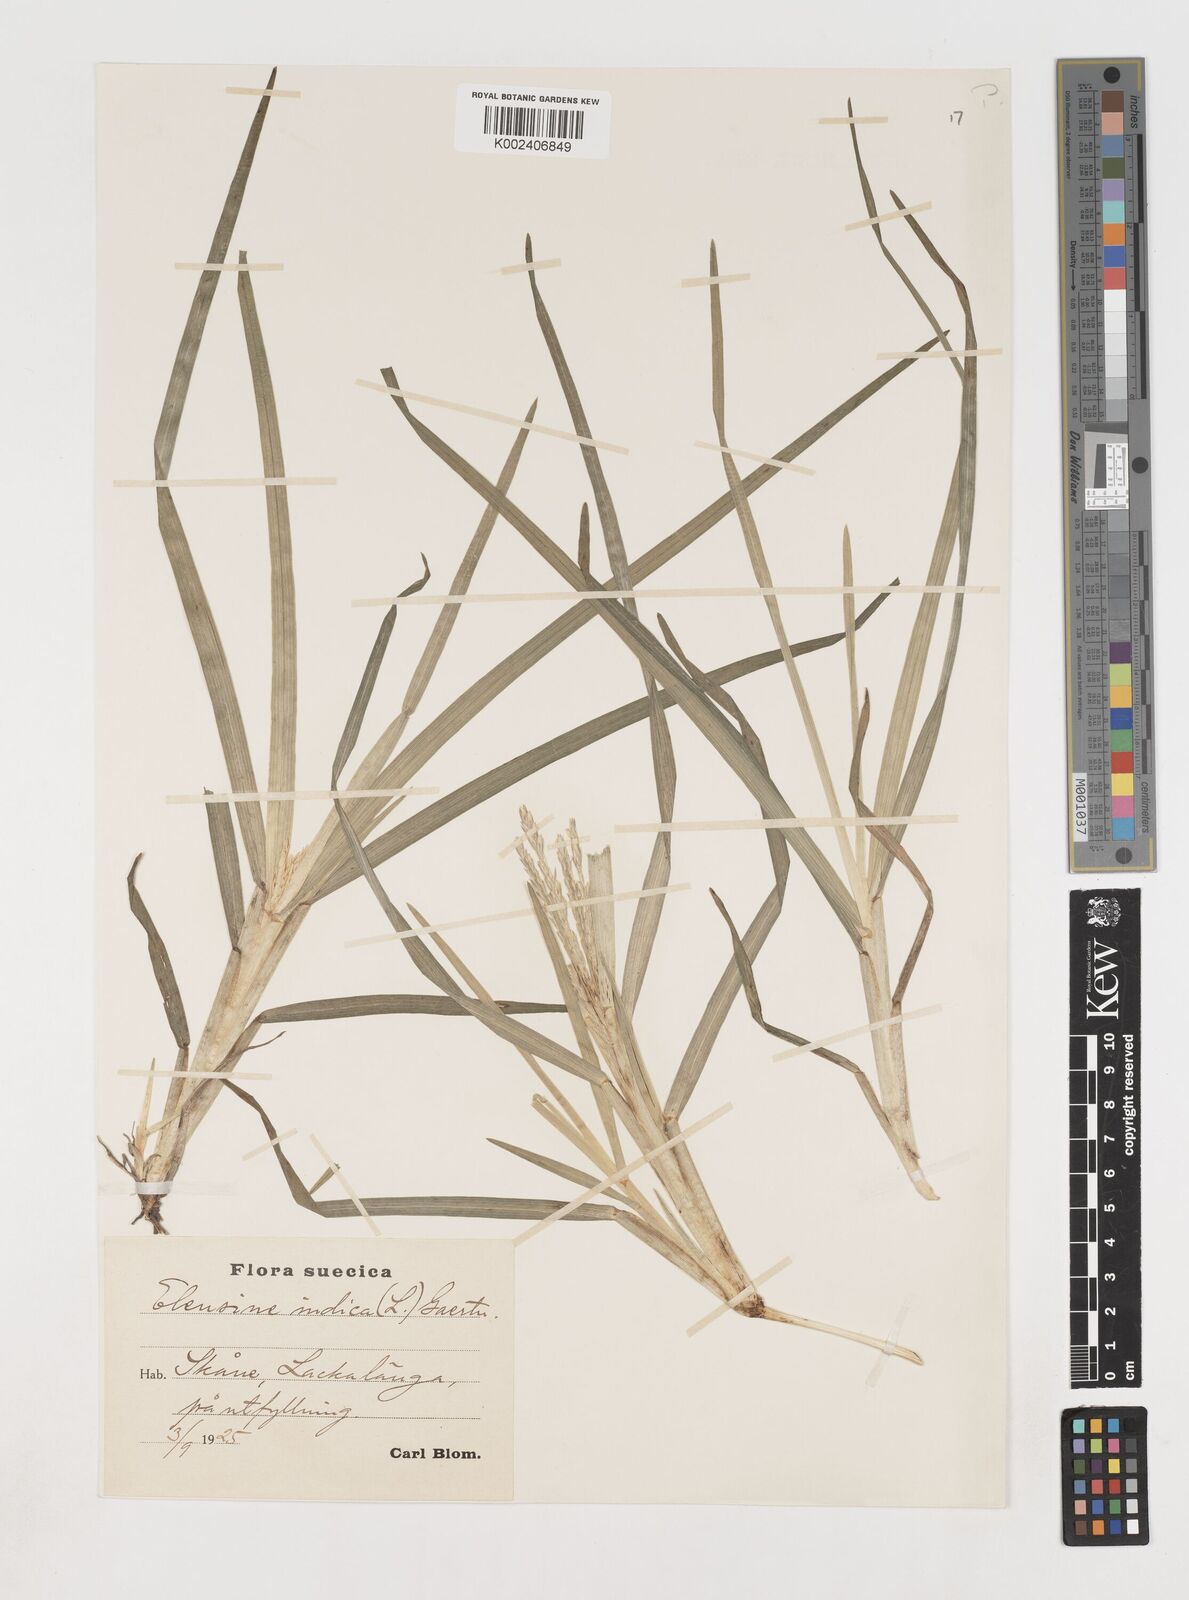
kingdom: Plantae
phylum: Tracheophyta
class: Liliopsida
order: Poales
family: Poaceae
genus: Eleusine
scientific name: Eleusine africana
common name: Wild african finger millet
